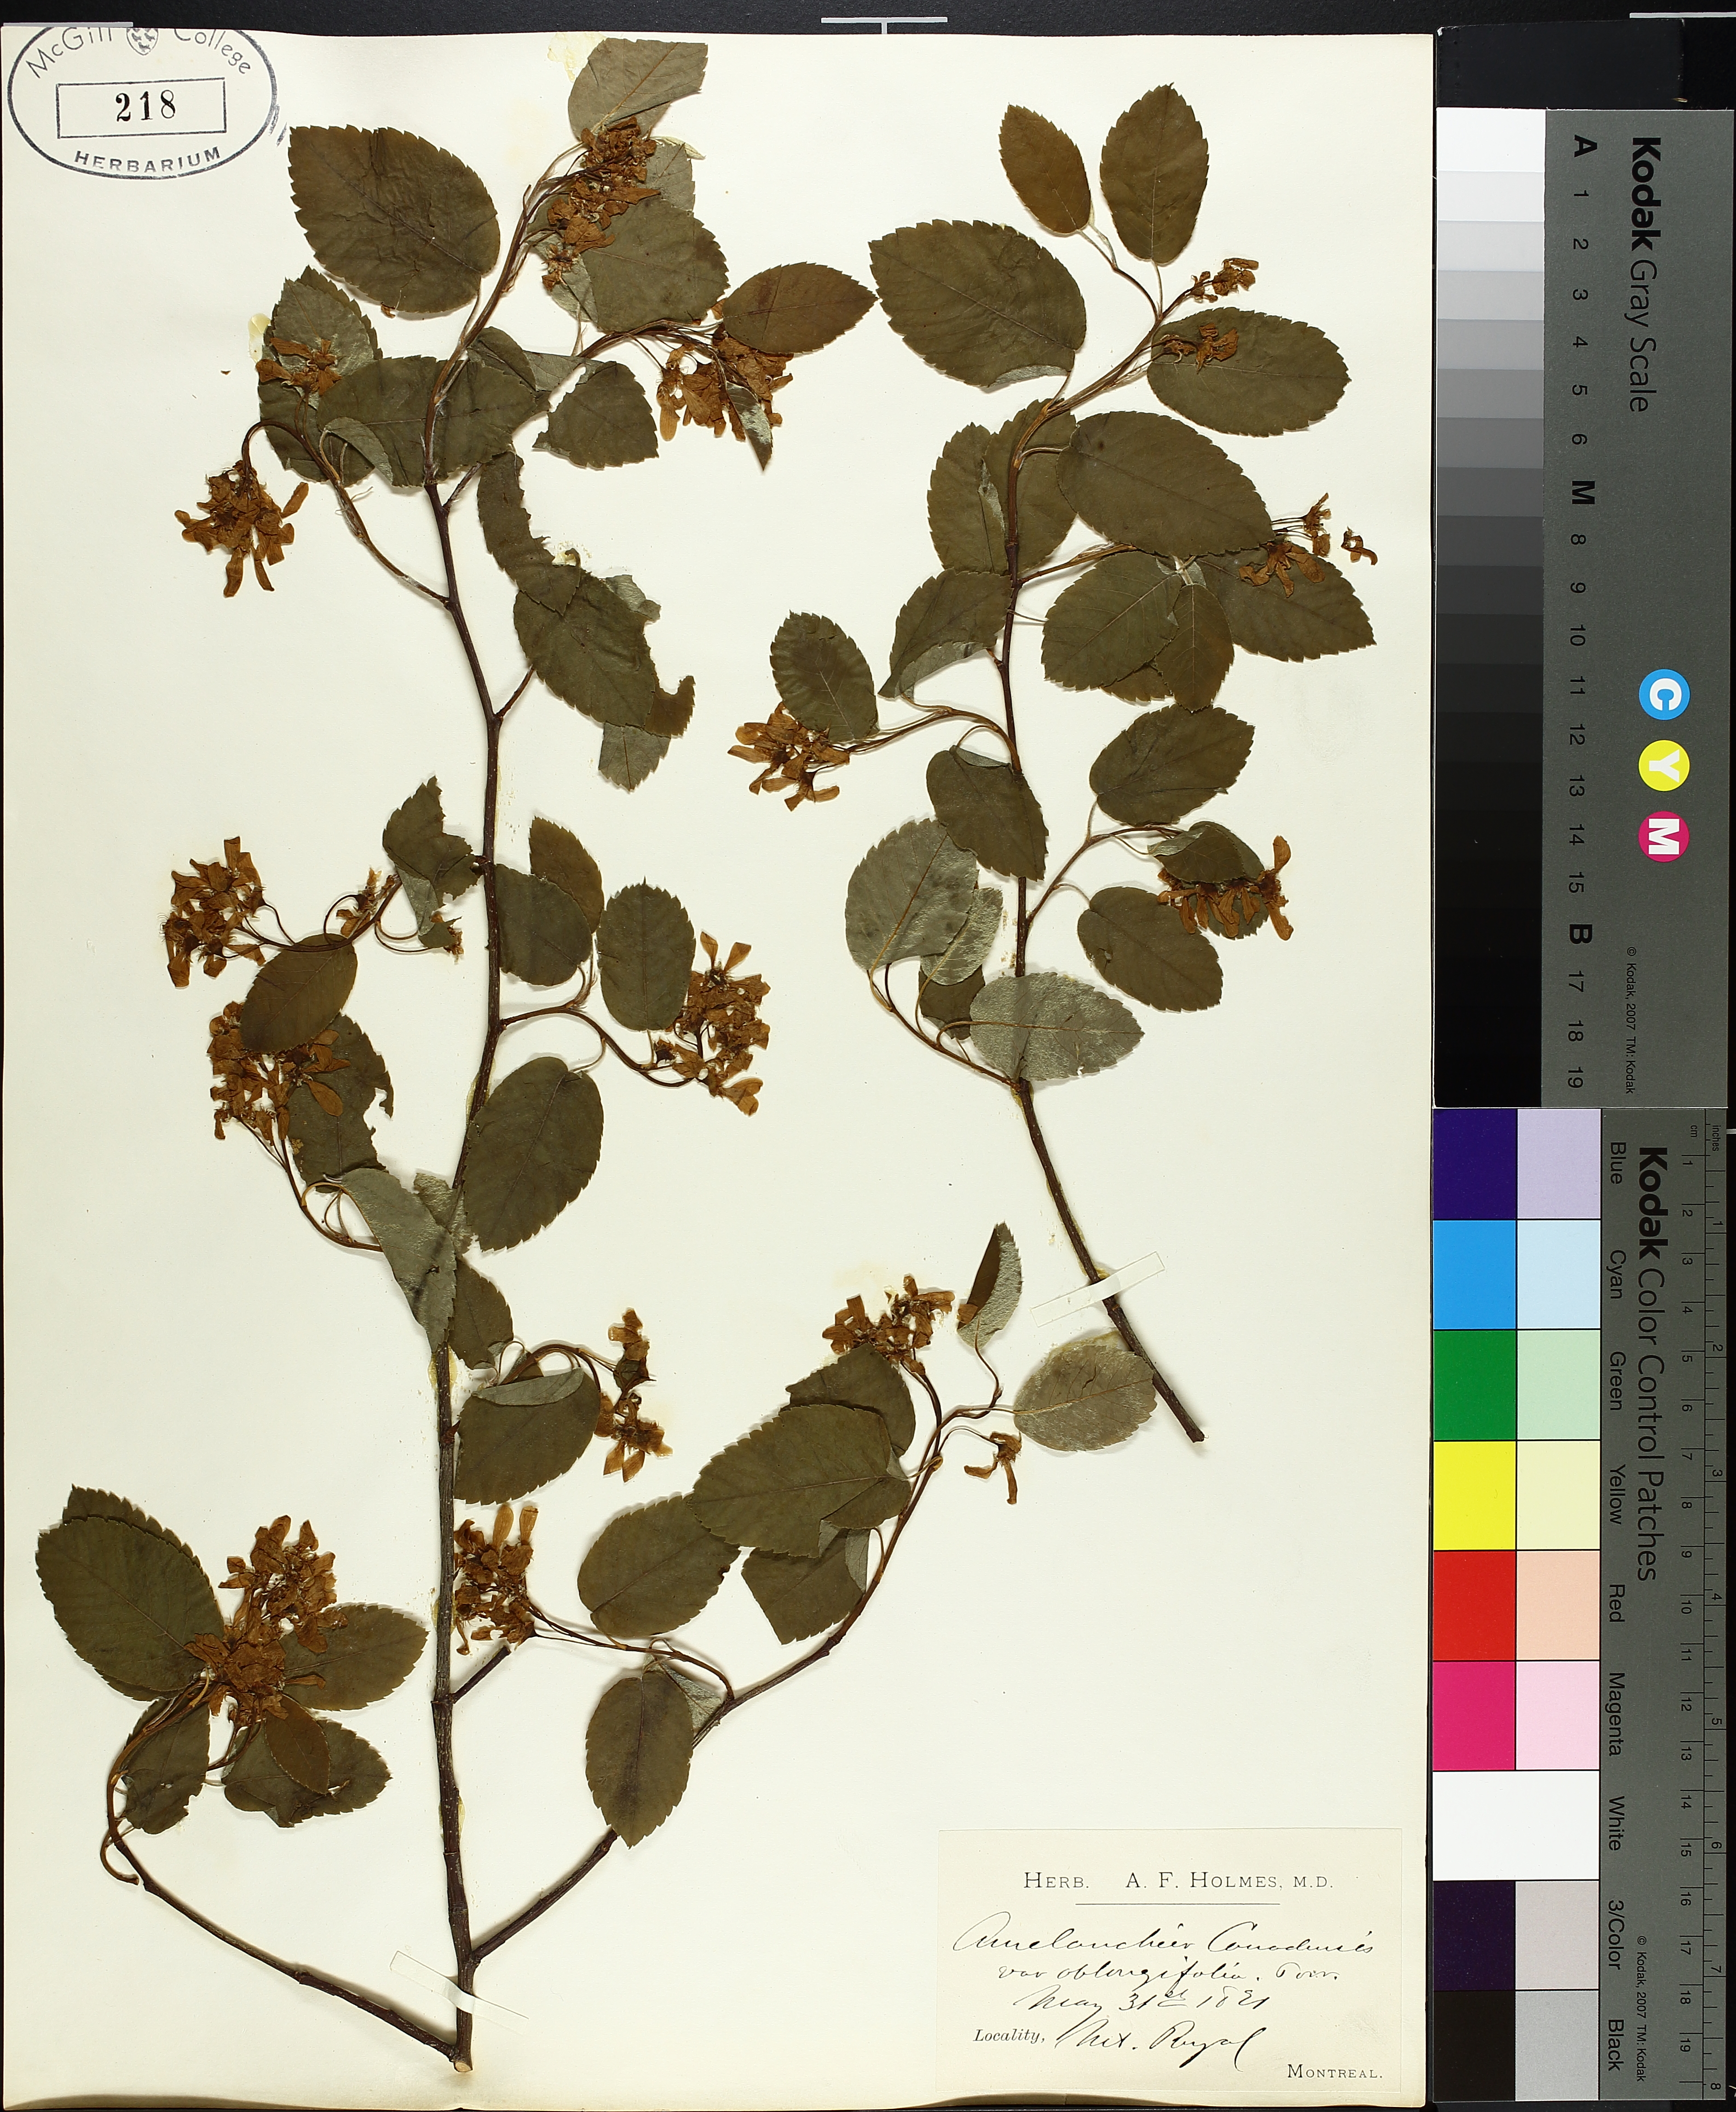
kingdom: Plantae
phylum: Tracheophyta
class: Magnoliopsida
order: Rosales
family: Rosaceae
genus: Amelanchier
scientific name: Amelanchier canadensis
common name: Thicket serviceberry
